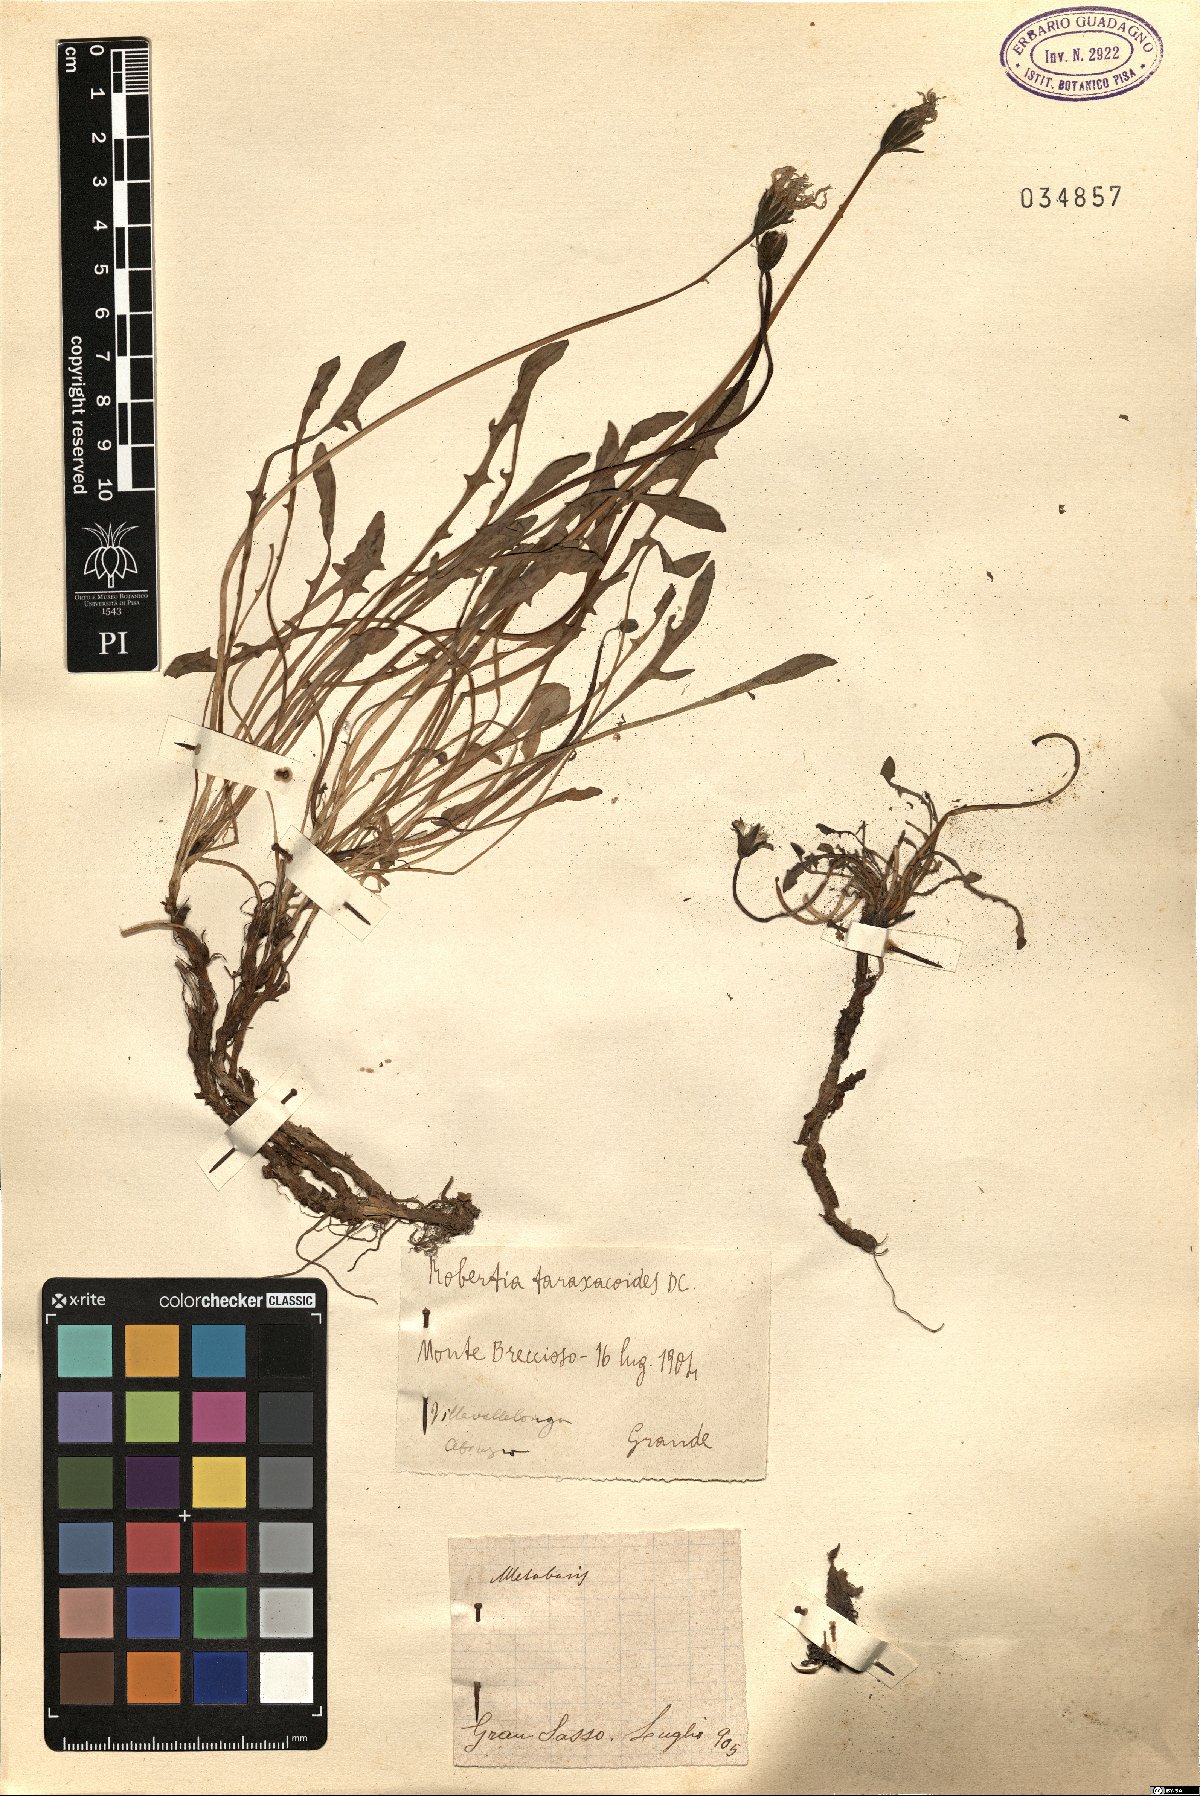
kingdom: Plantae
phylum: Tracheophyta
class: Magnoliopsida
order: Asterales
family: Asteraceae
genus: Hypochaeris
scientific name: Hypochaeris robertia
